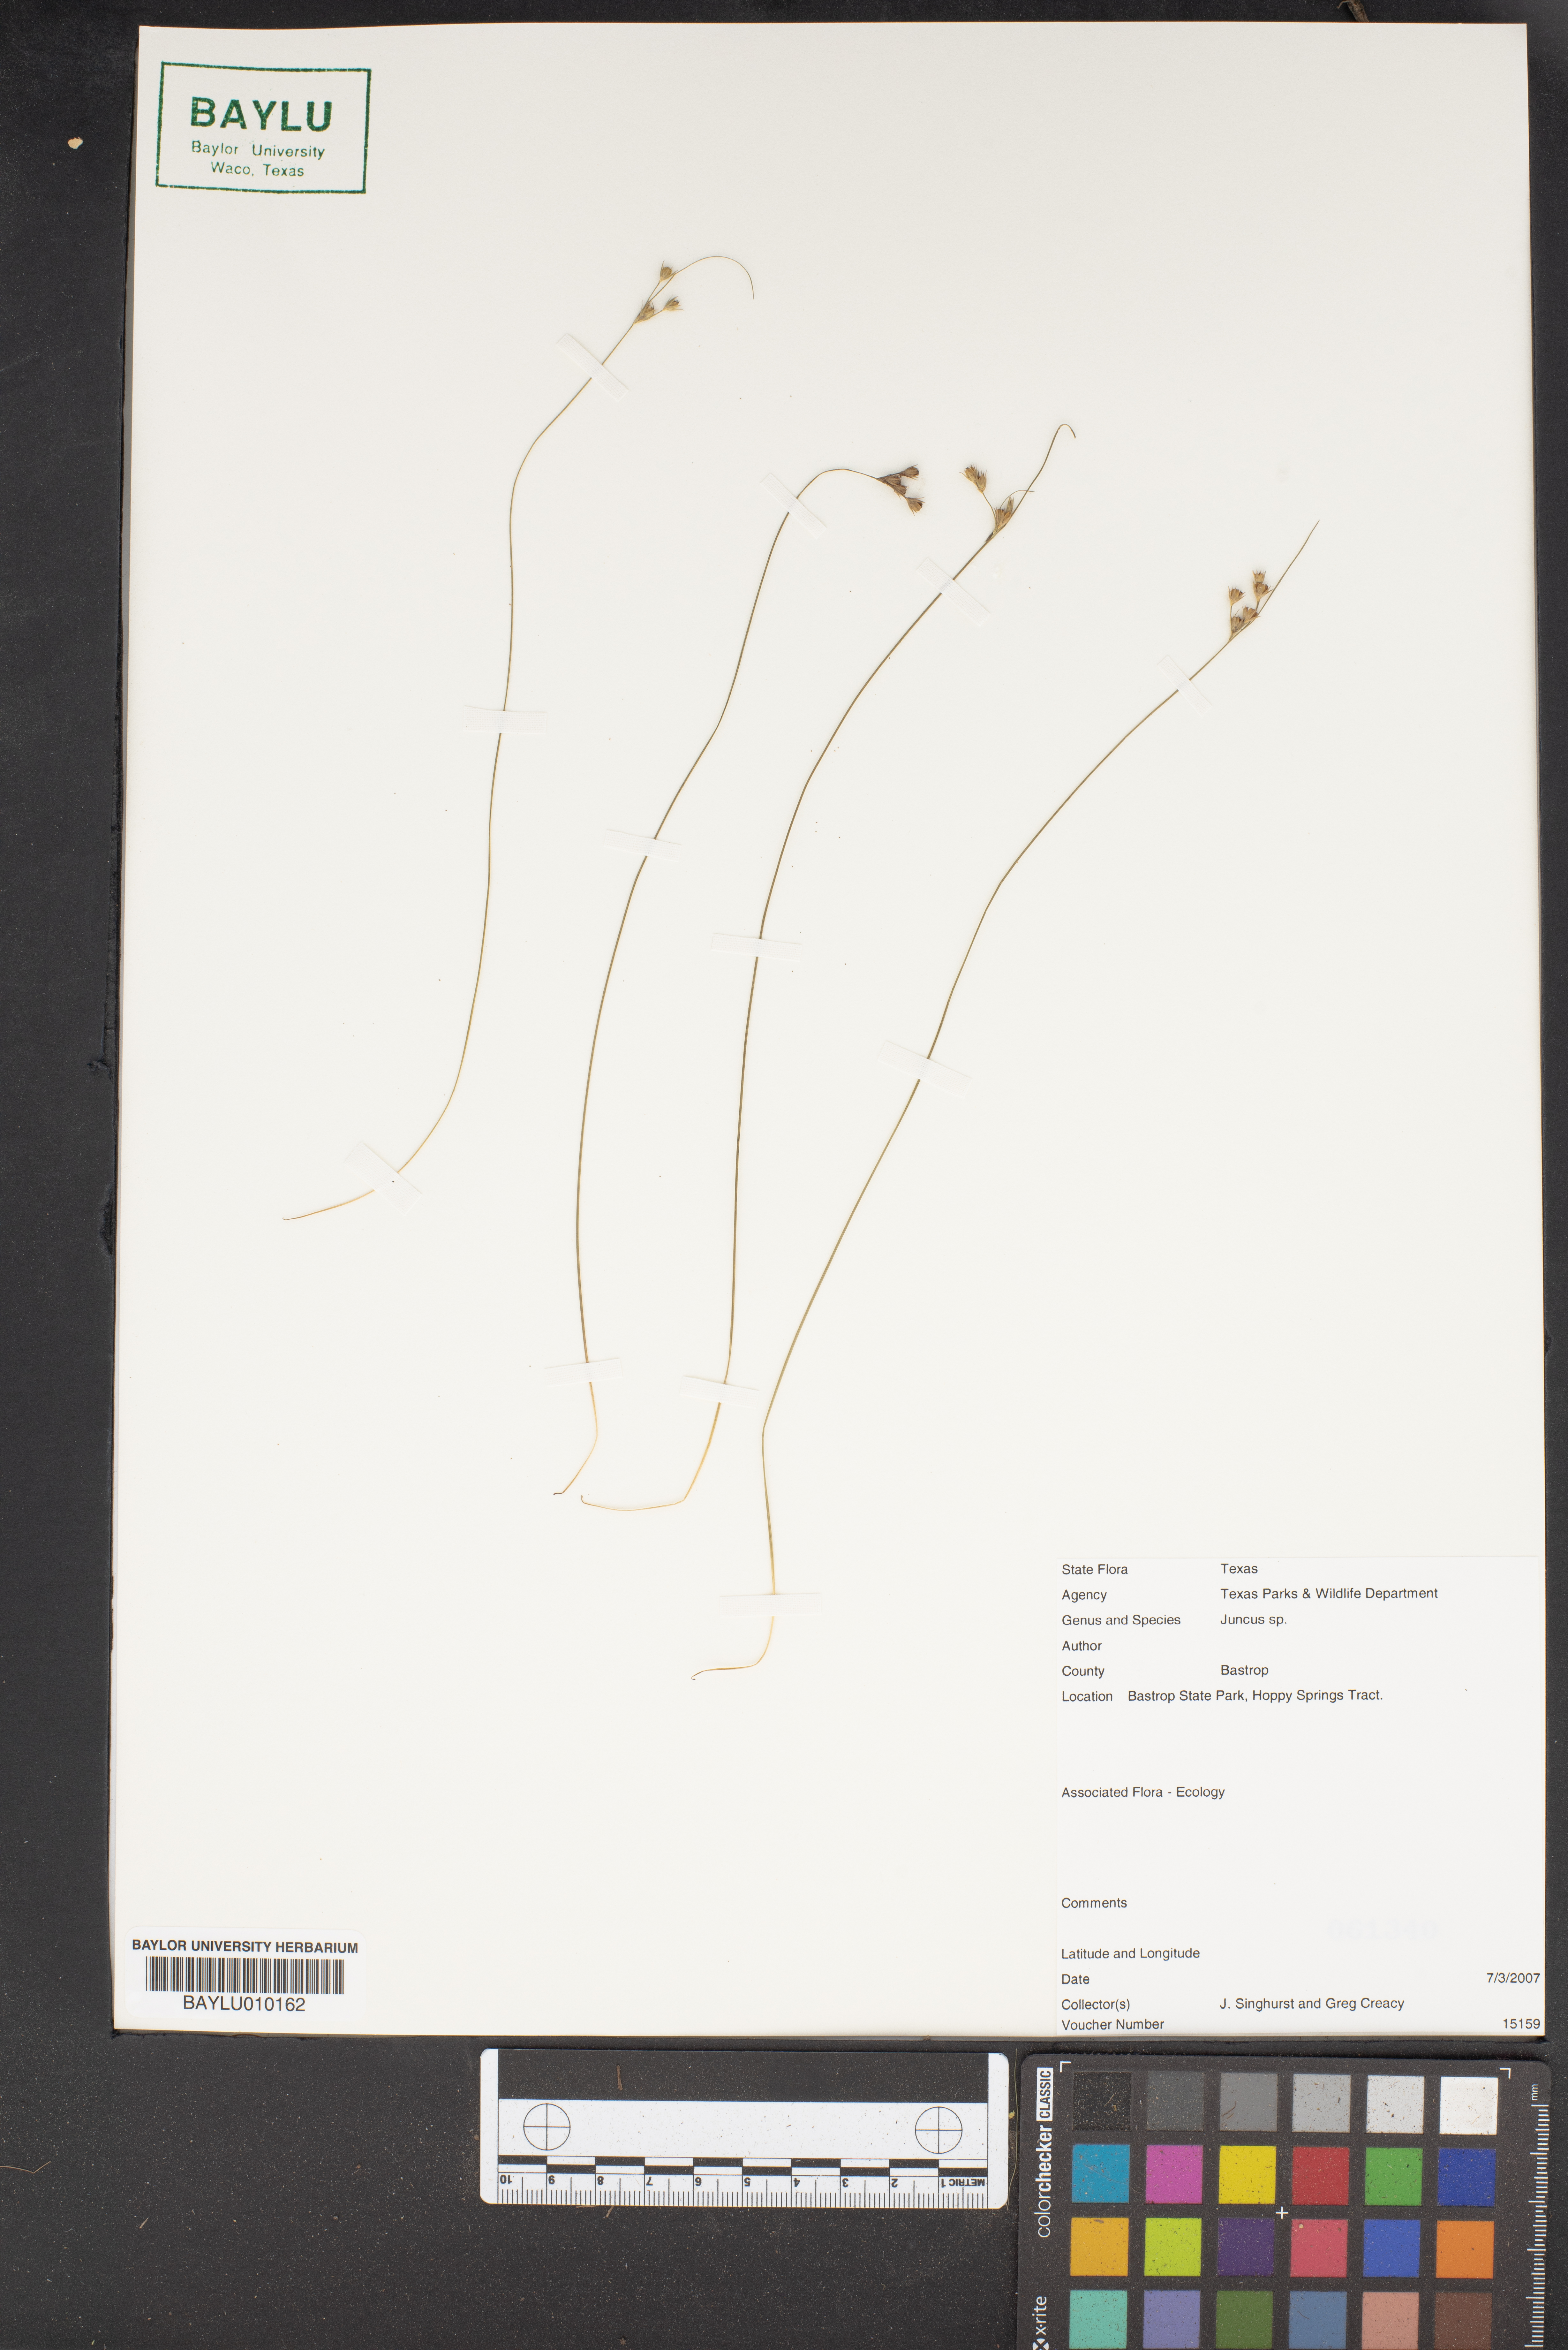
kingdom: Plantae
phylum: Tracheophyta
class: Liliopsida
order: Poales
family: Juncaceae
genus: Juncus
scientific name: Juncus
